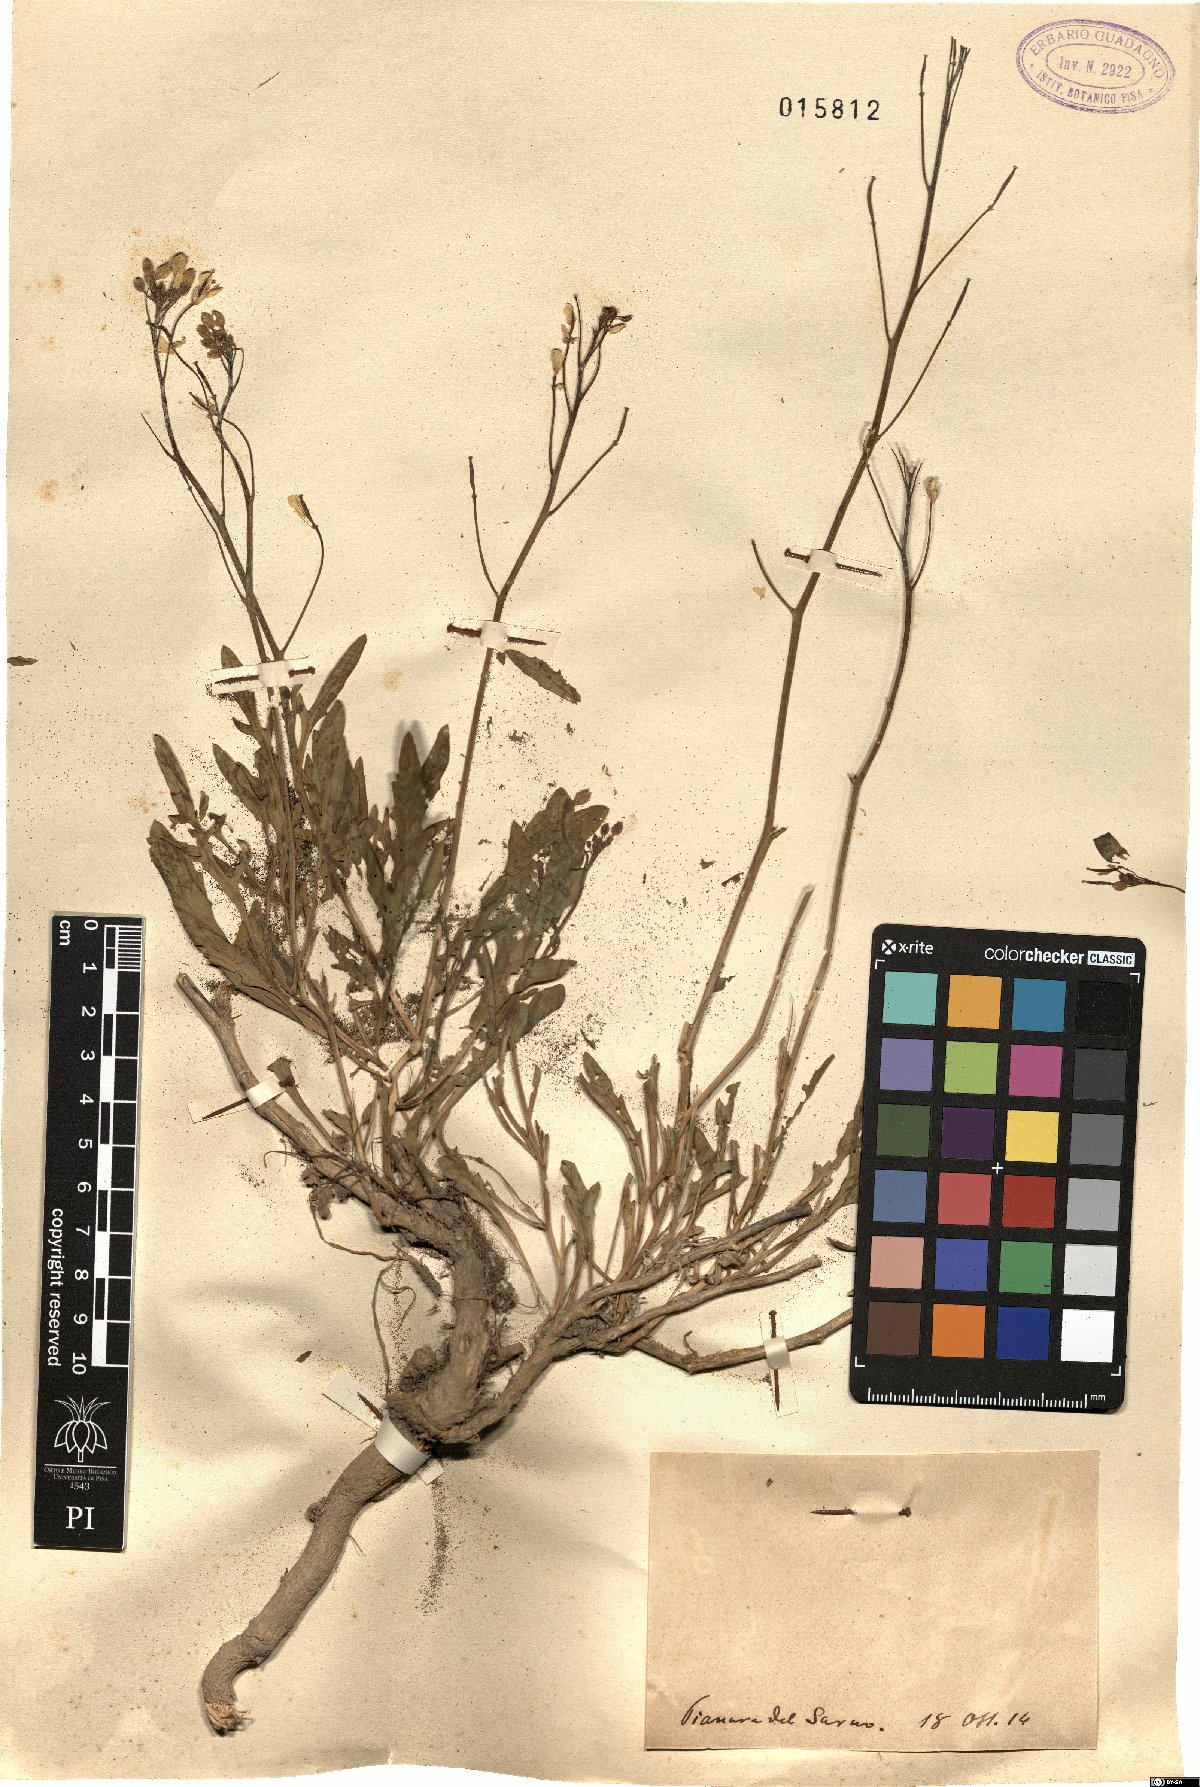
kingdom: Plantae
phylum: Tracheophyta
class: Magnoliopsida
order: Brassicales
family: Brassicaceae
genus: Diplotaxis
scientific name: Diplotaxis
